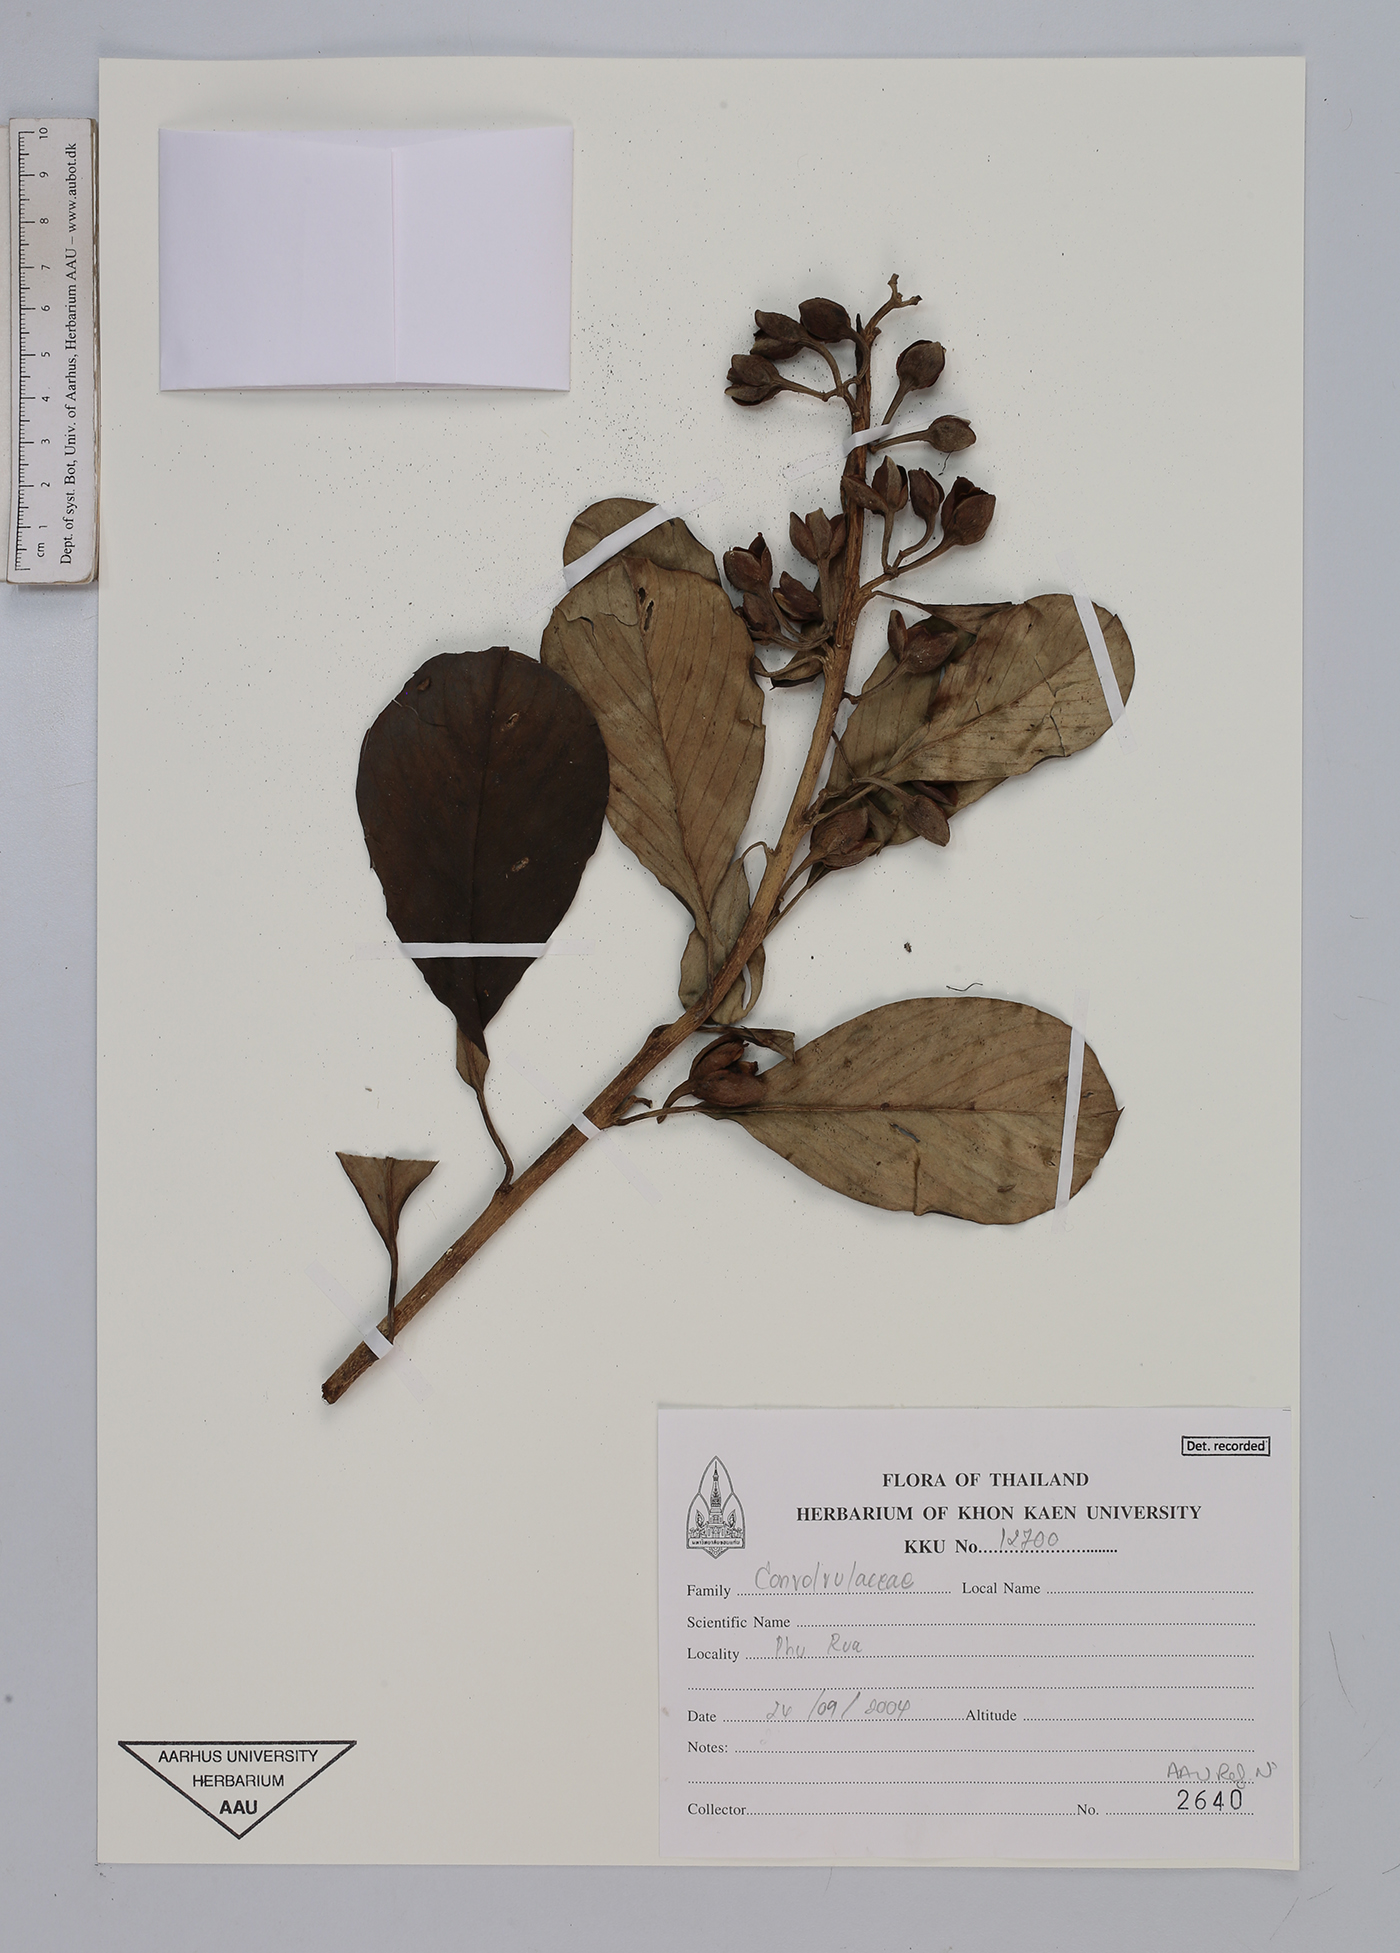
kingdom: Plantae
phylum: Tracheophyta
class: Magnoliopsida
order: Solanales
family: Convolvulaceae
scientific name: Convolvulaceae
